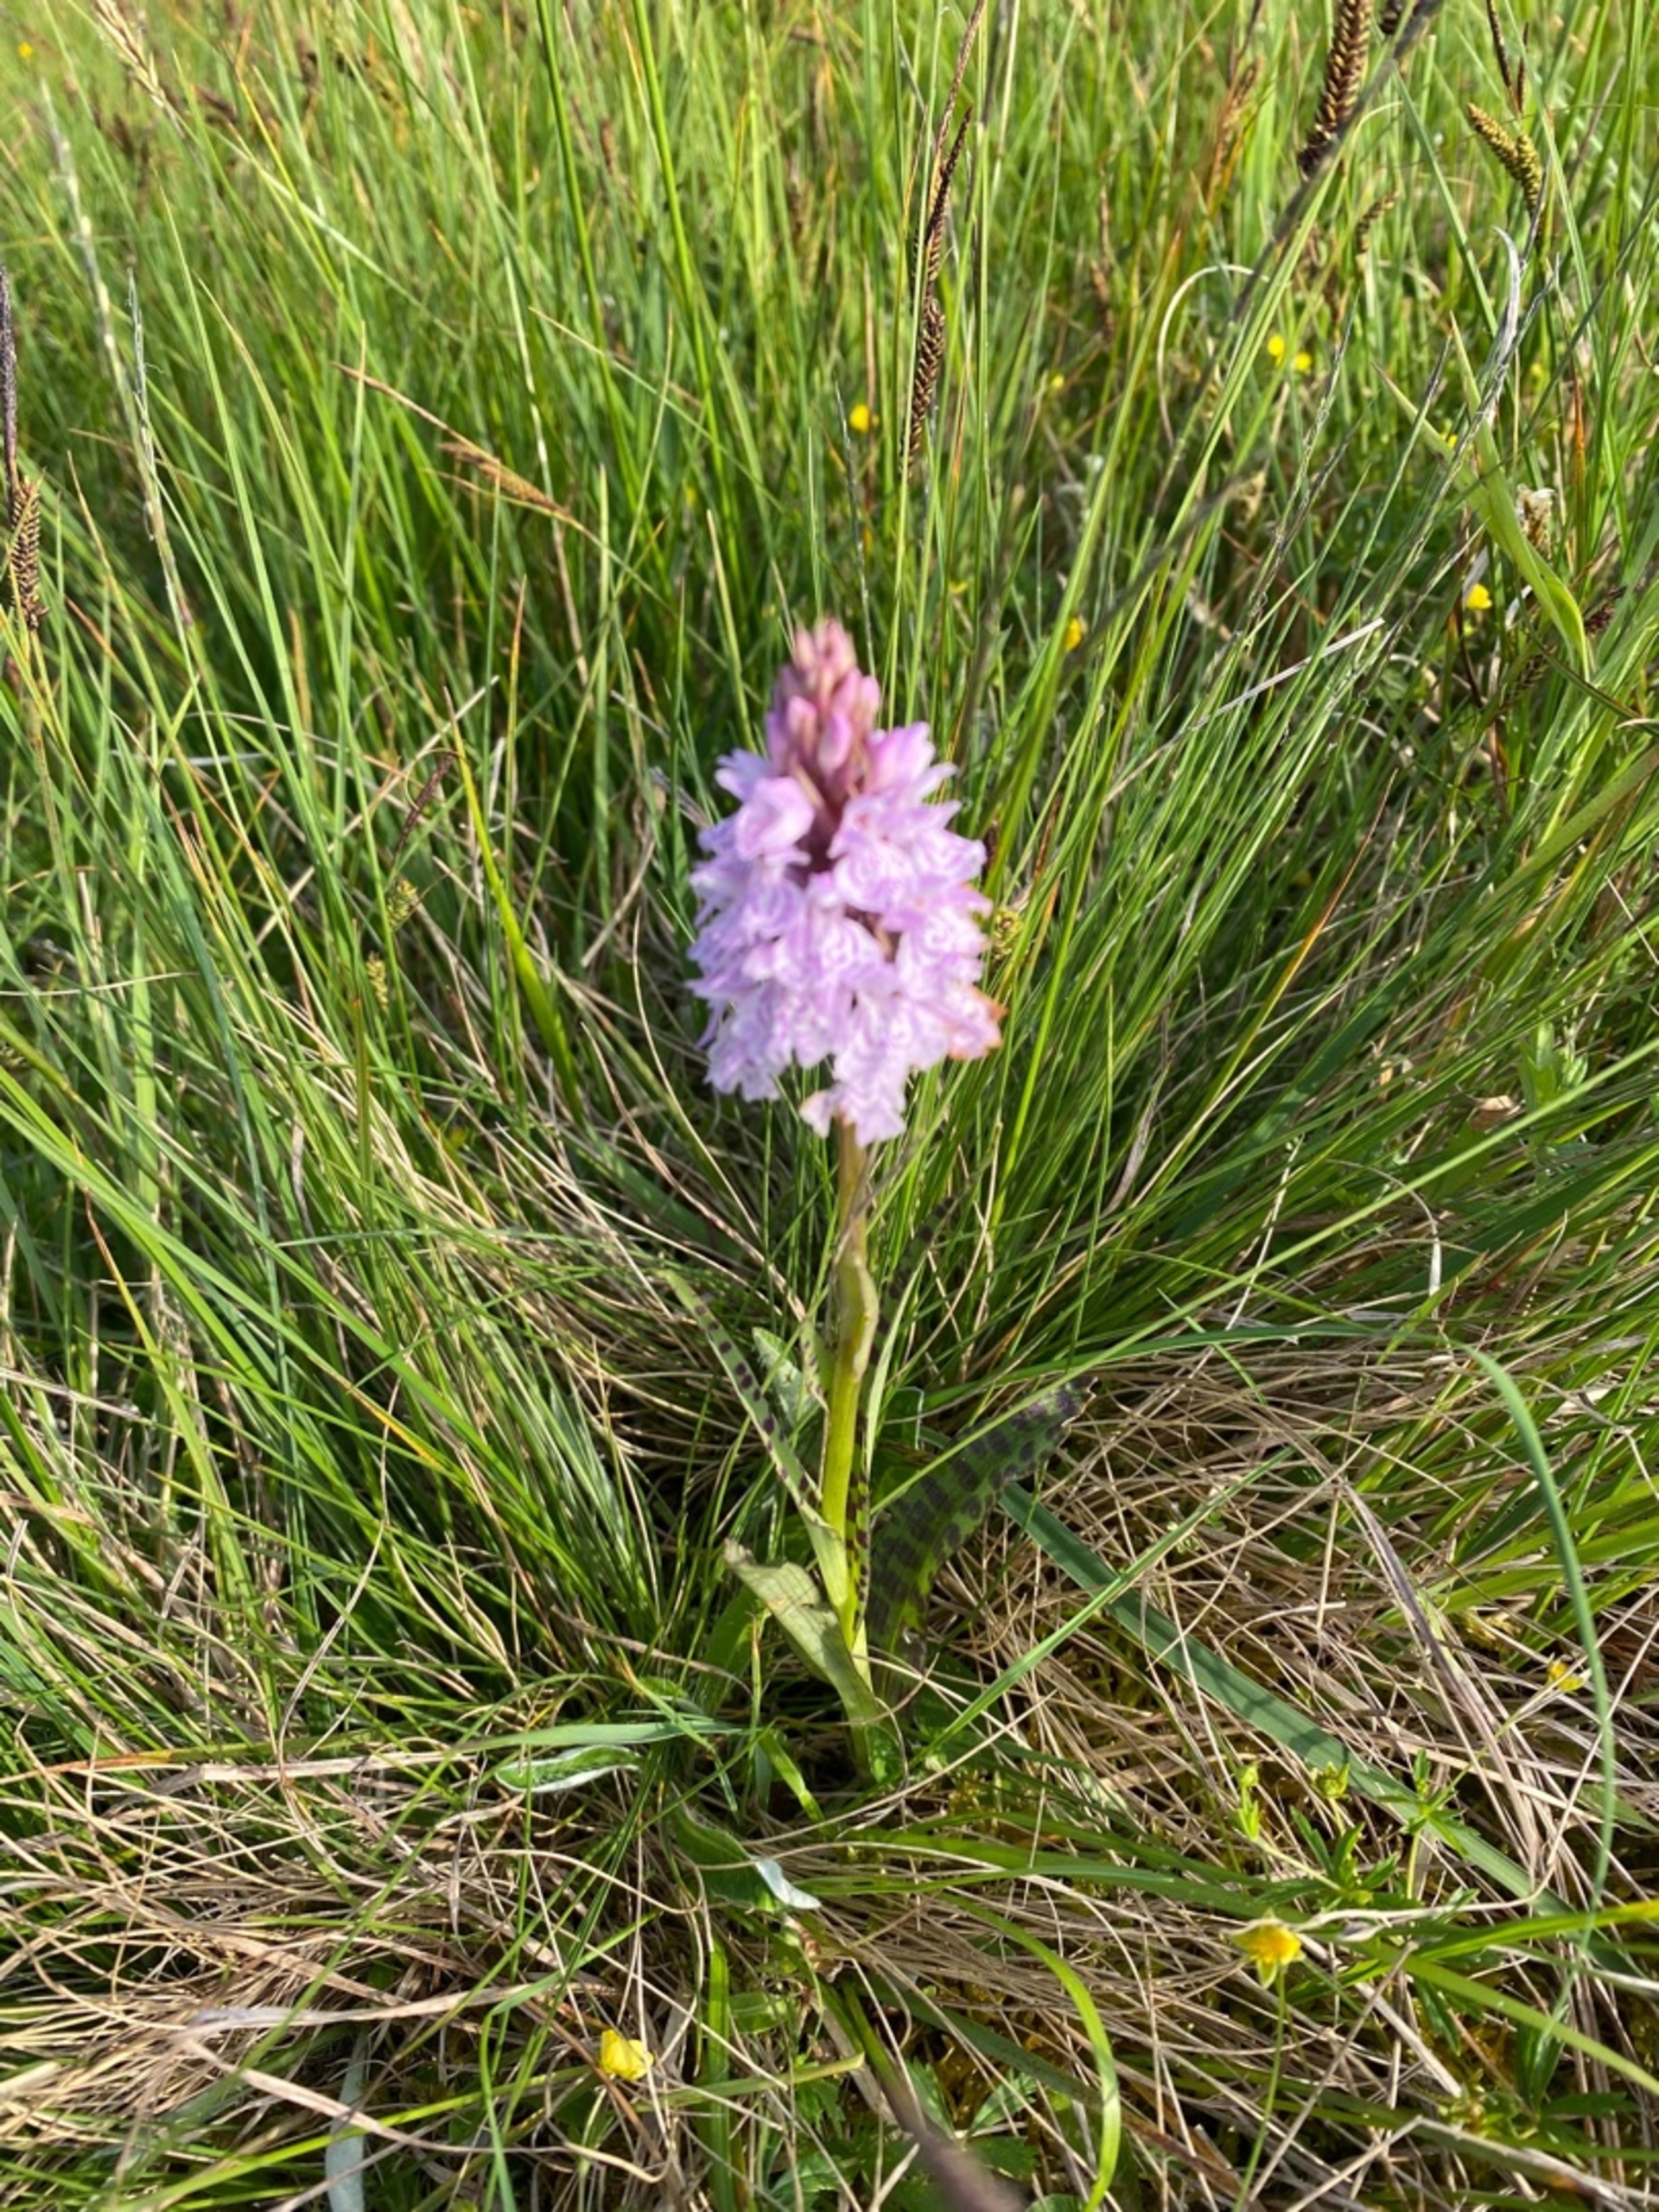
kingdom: Plantae
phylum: Tracheophyta
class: Liliopsida
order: Asparagales
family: Orchidaceae
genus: Dactylorhiza
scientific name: Dactylorhiza maculata
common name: Plettet gøgeurt
